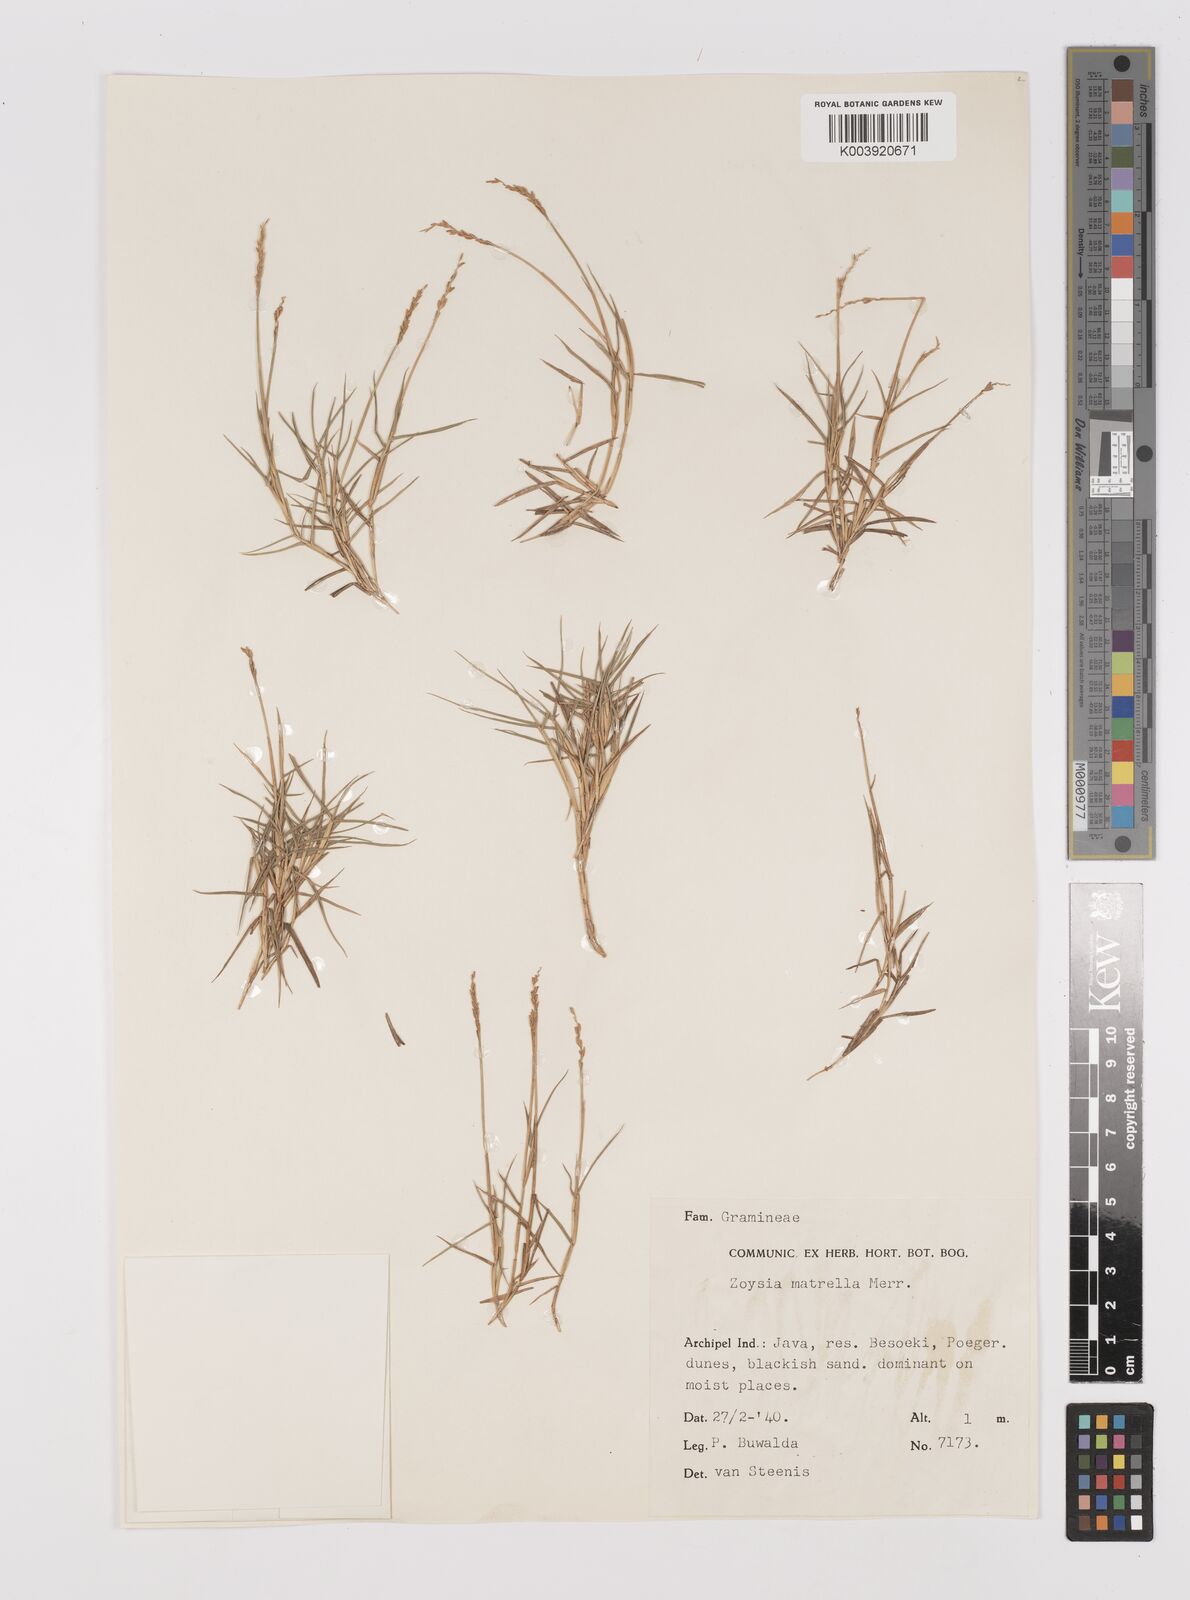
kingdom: Plantae
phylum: Tracheophyta
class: Liliopsida
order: Poales
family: Poaceae
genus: Zoysia
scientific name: Zoysia matrella
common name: Manila grass
